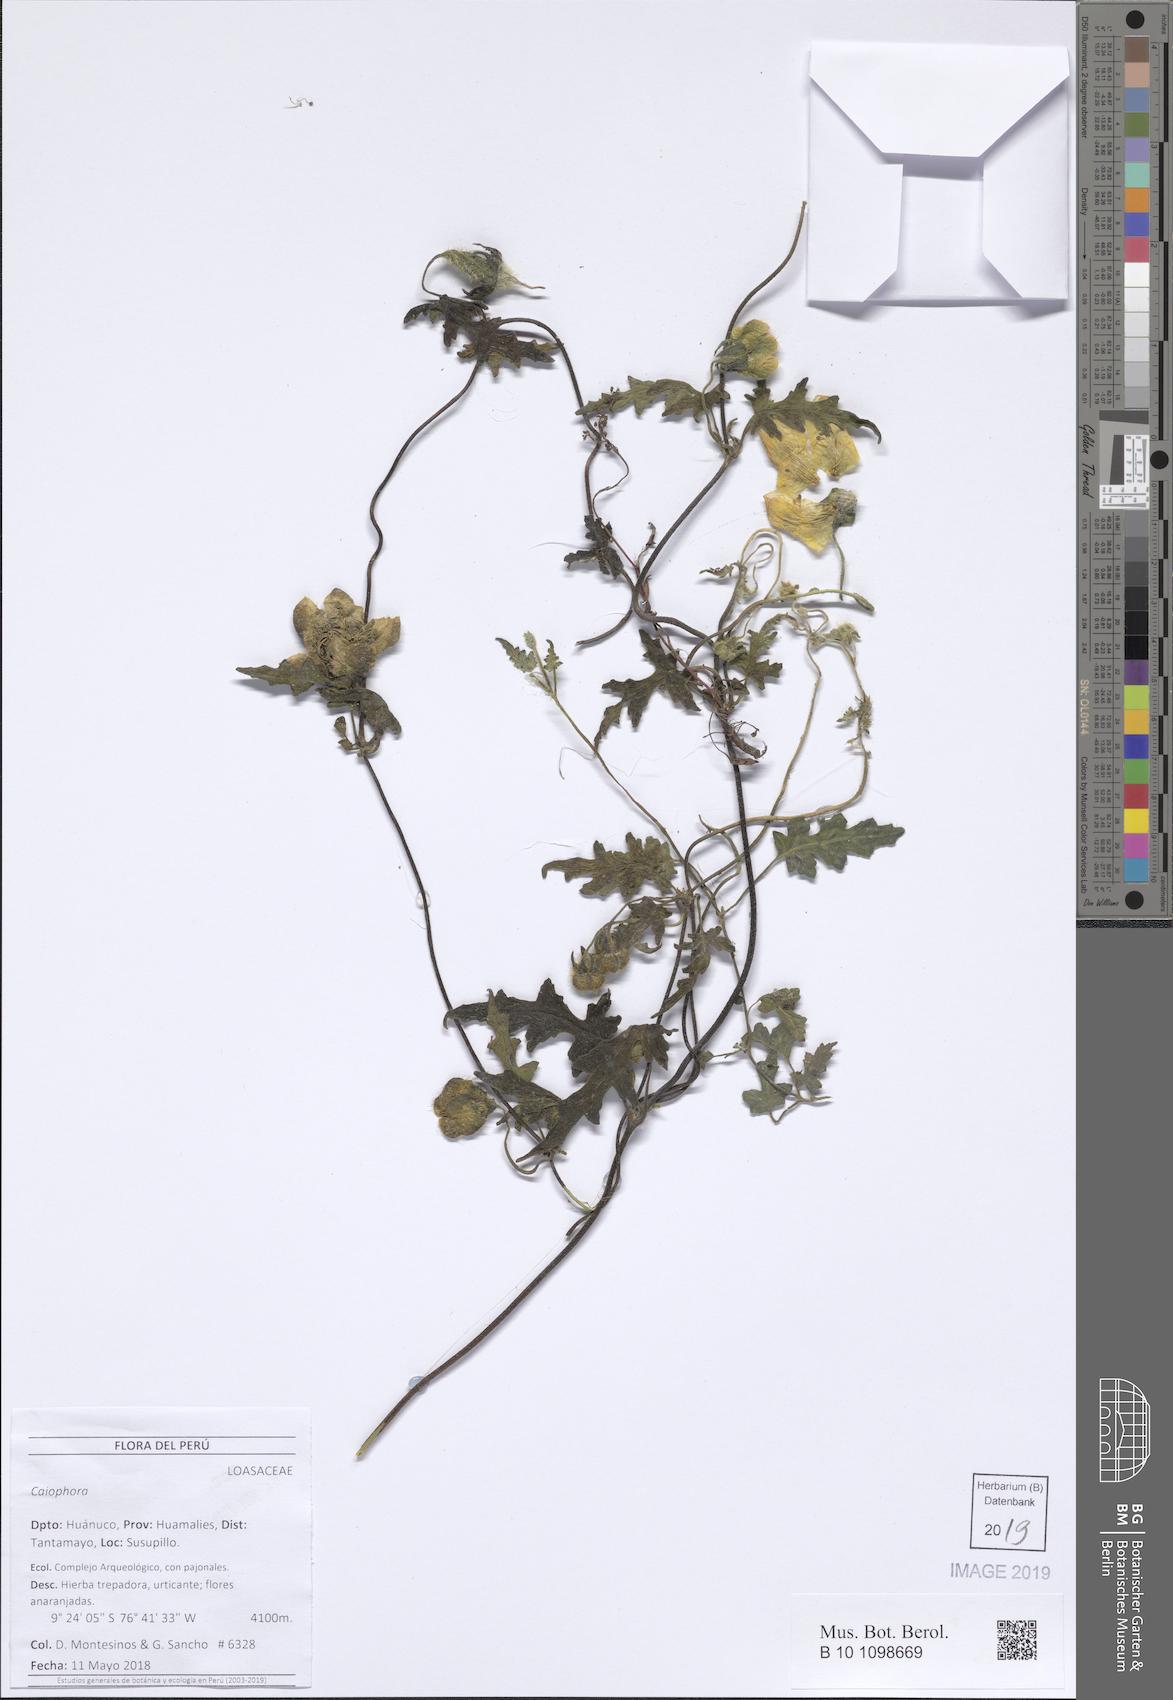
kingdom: Plantae
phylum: Tracheophyta
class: Magnoliopsida
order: Cornales
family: Loasaceae
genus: Caiophora
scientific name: Caiophora
